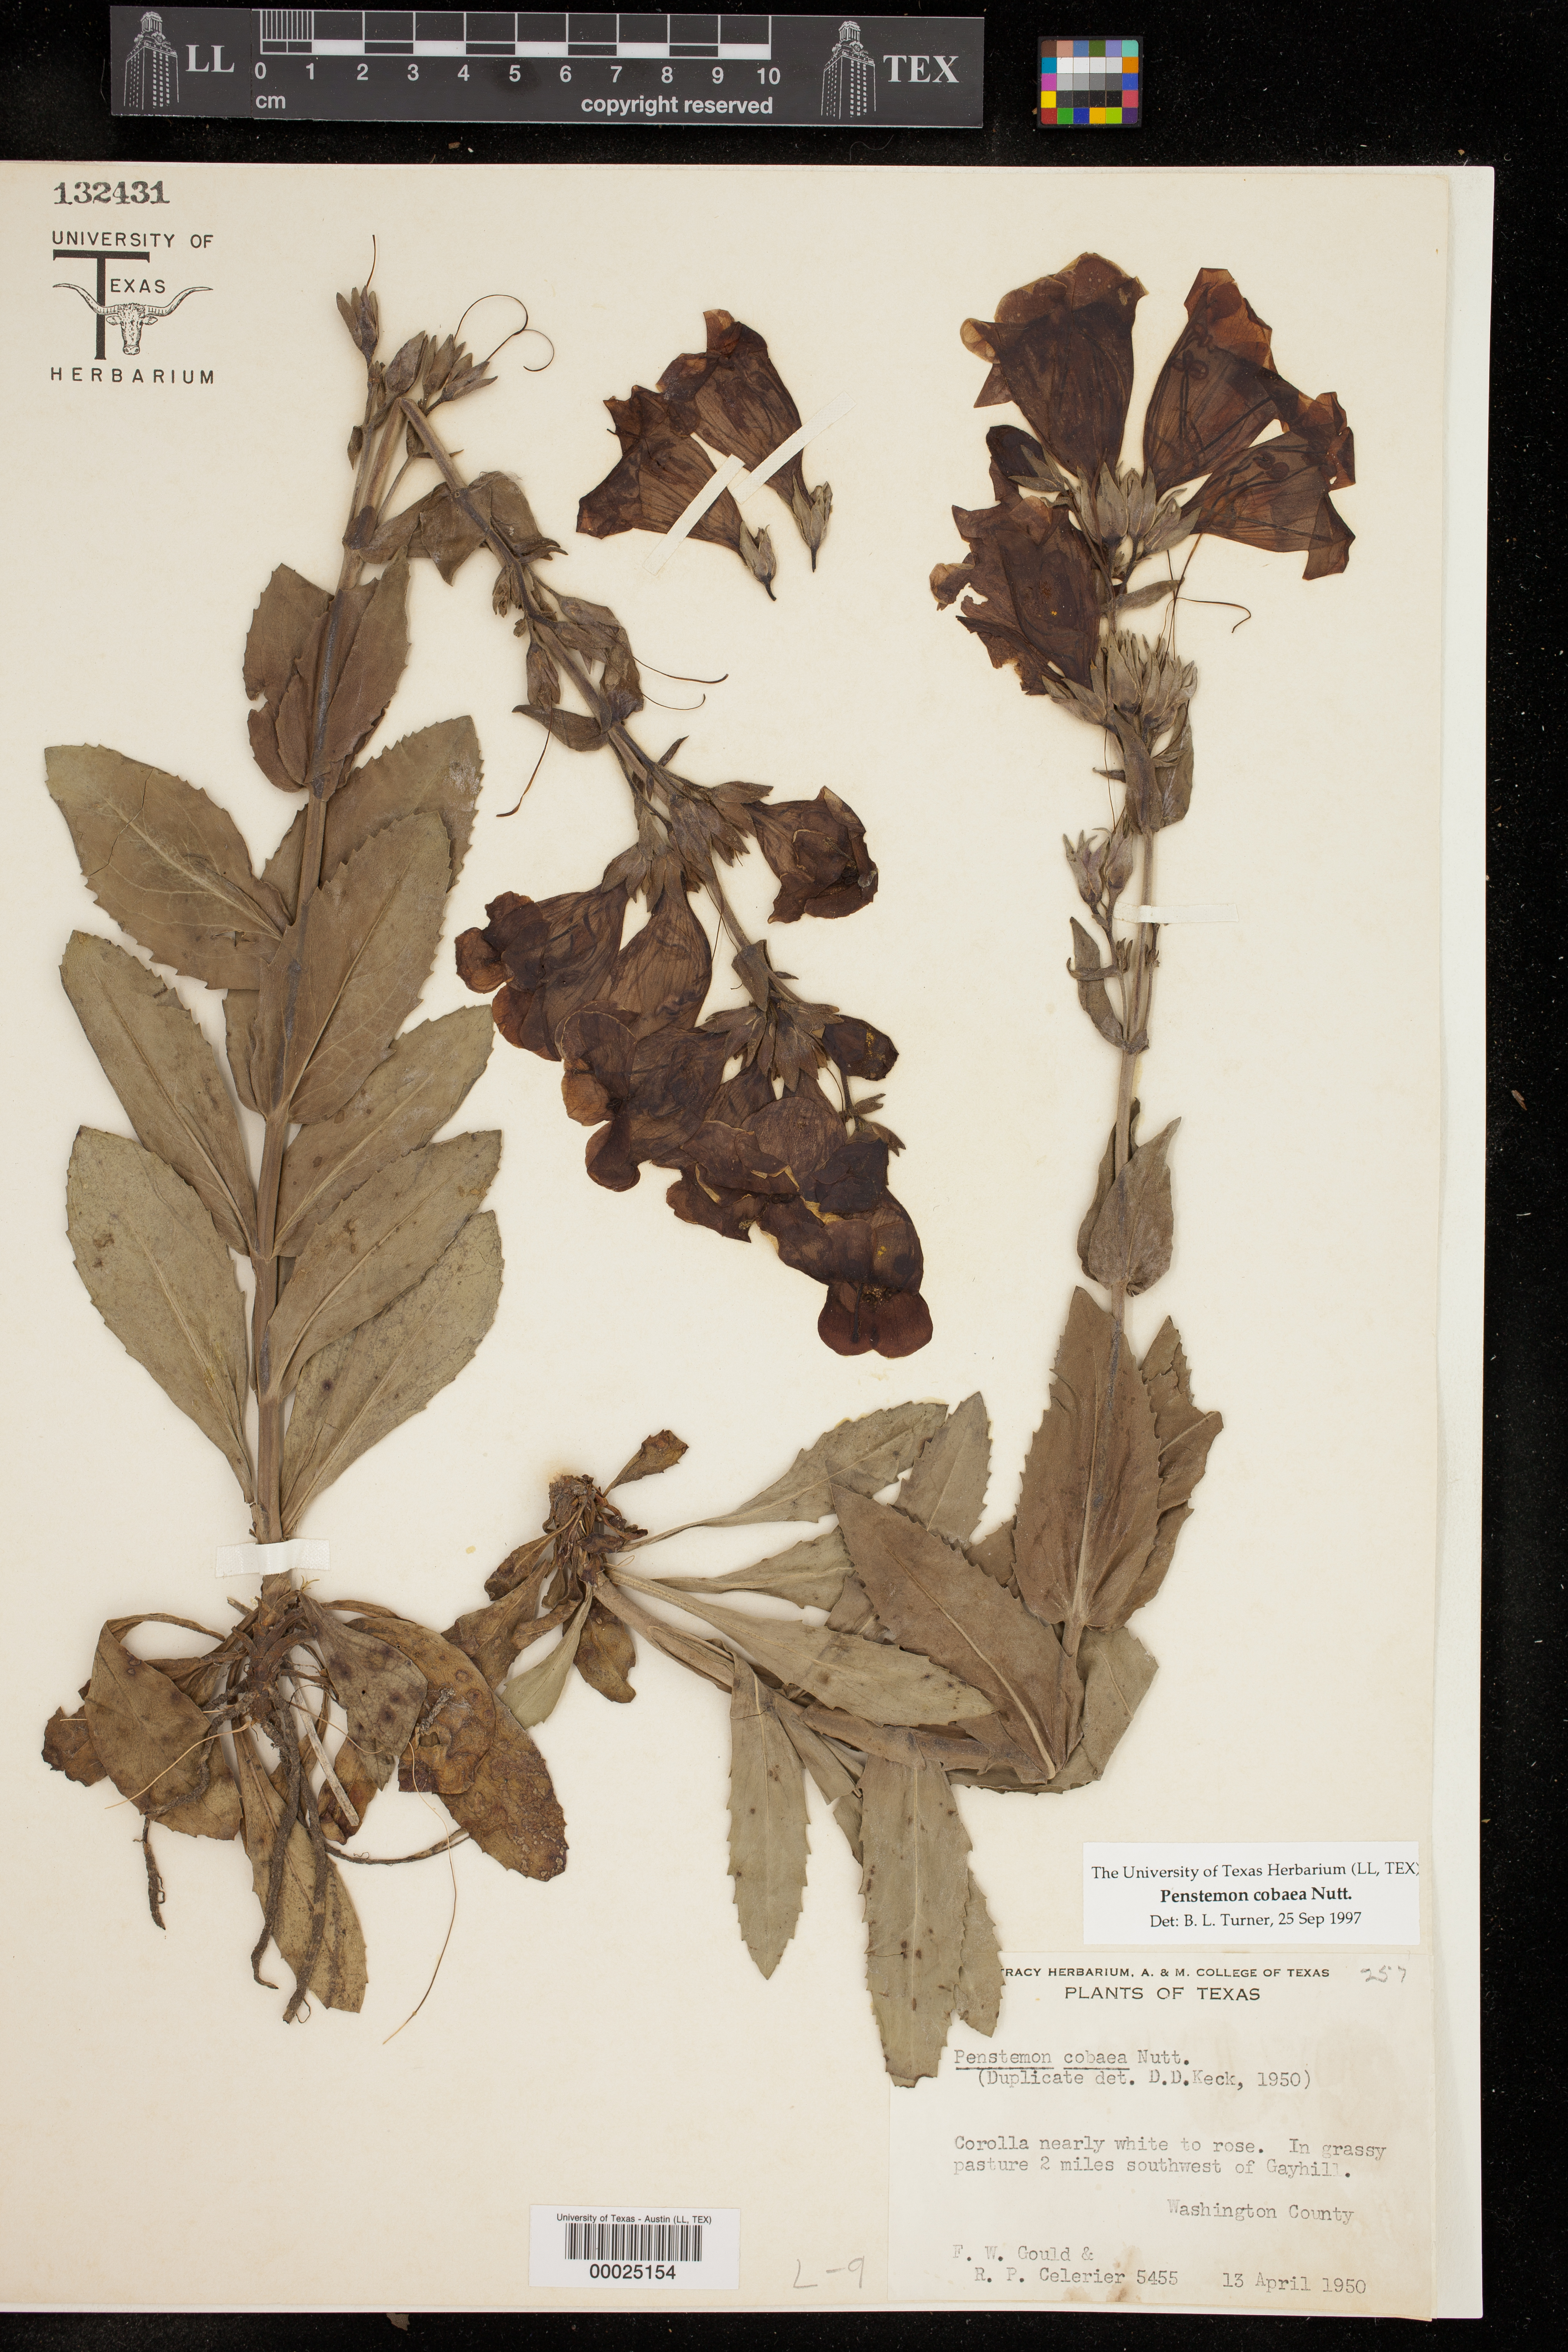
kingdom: Plantae
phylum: Tracheophyta
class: Magnoliopsida
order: Lamiales
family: Plantaginaceae
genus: Penstemon
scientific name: Penstemon cobaea
